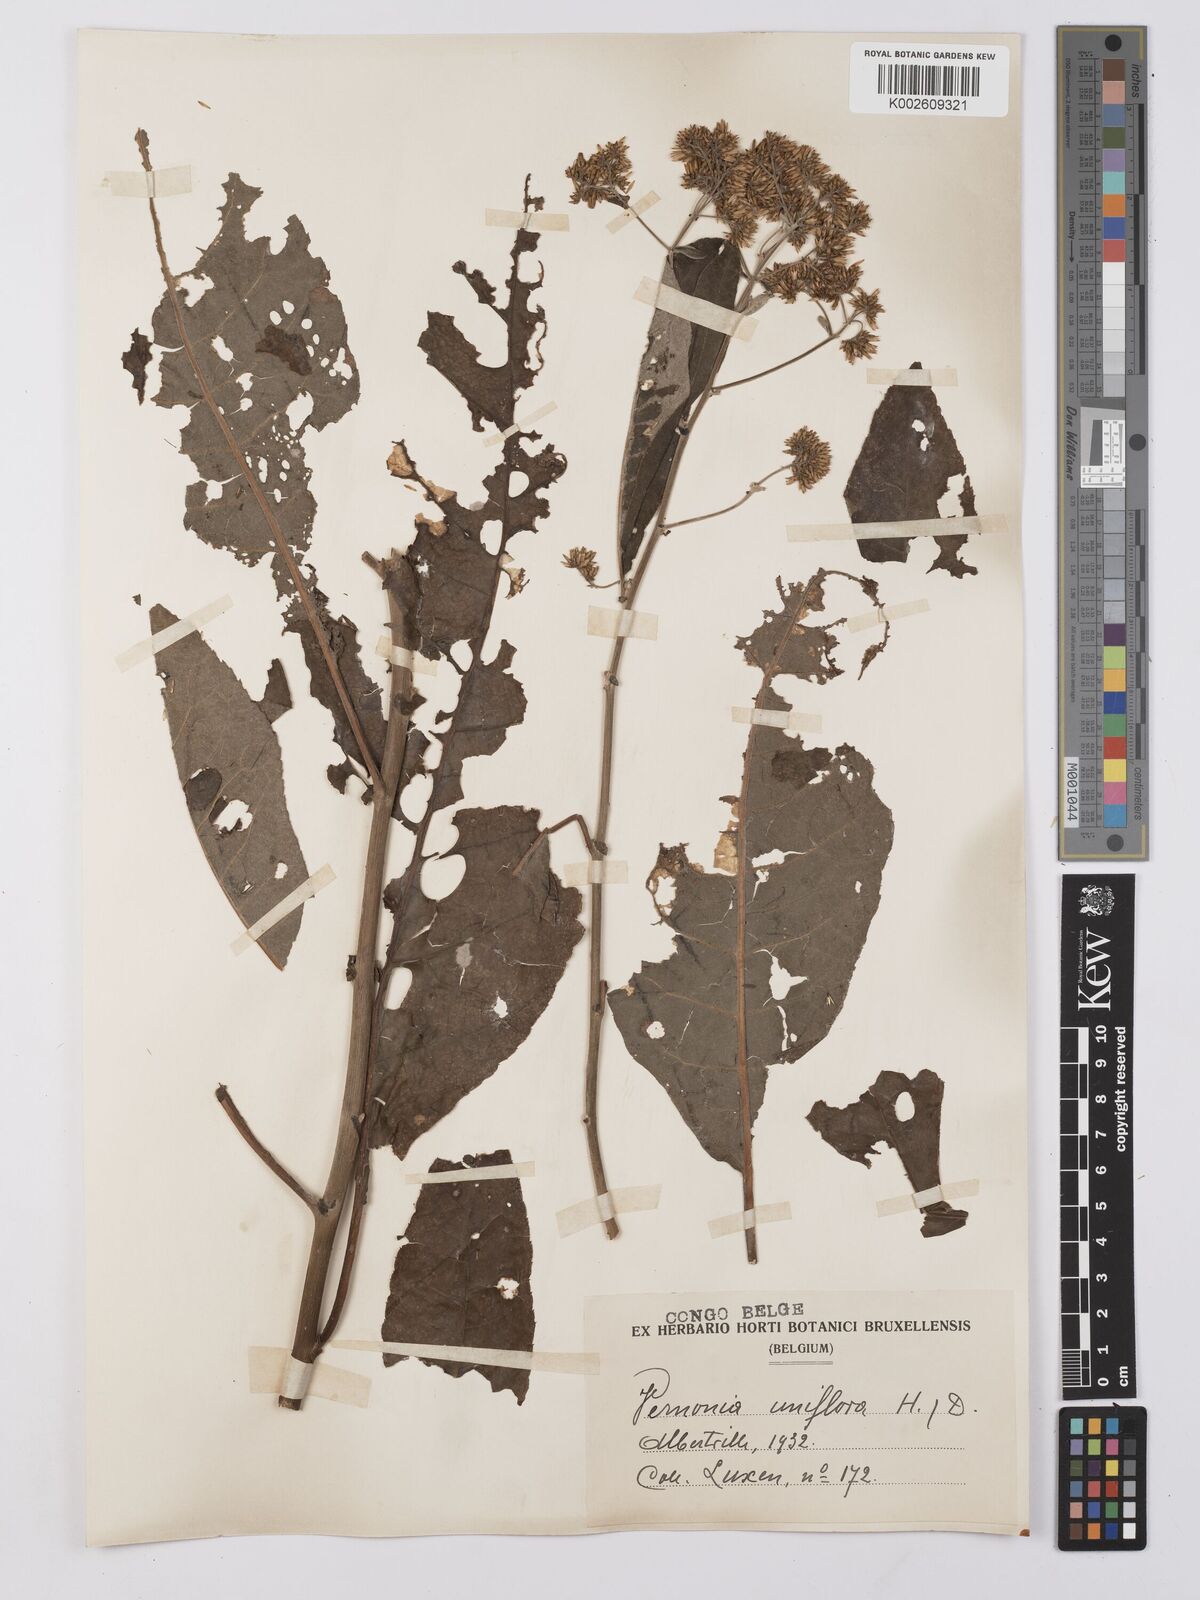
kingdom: Plantae
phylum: Tracheophyta
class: Magnoliopsida
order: Asterales
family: Asteraceae
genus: Gymnanthemum
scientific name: Gymnanthemum auriculiferum
